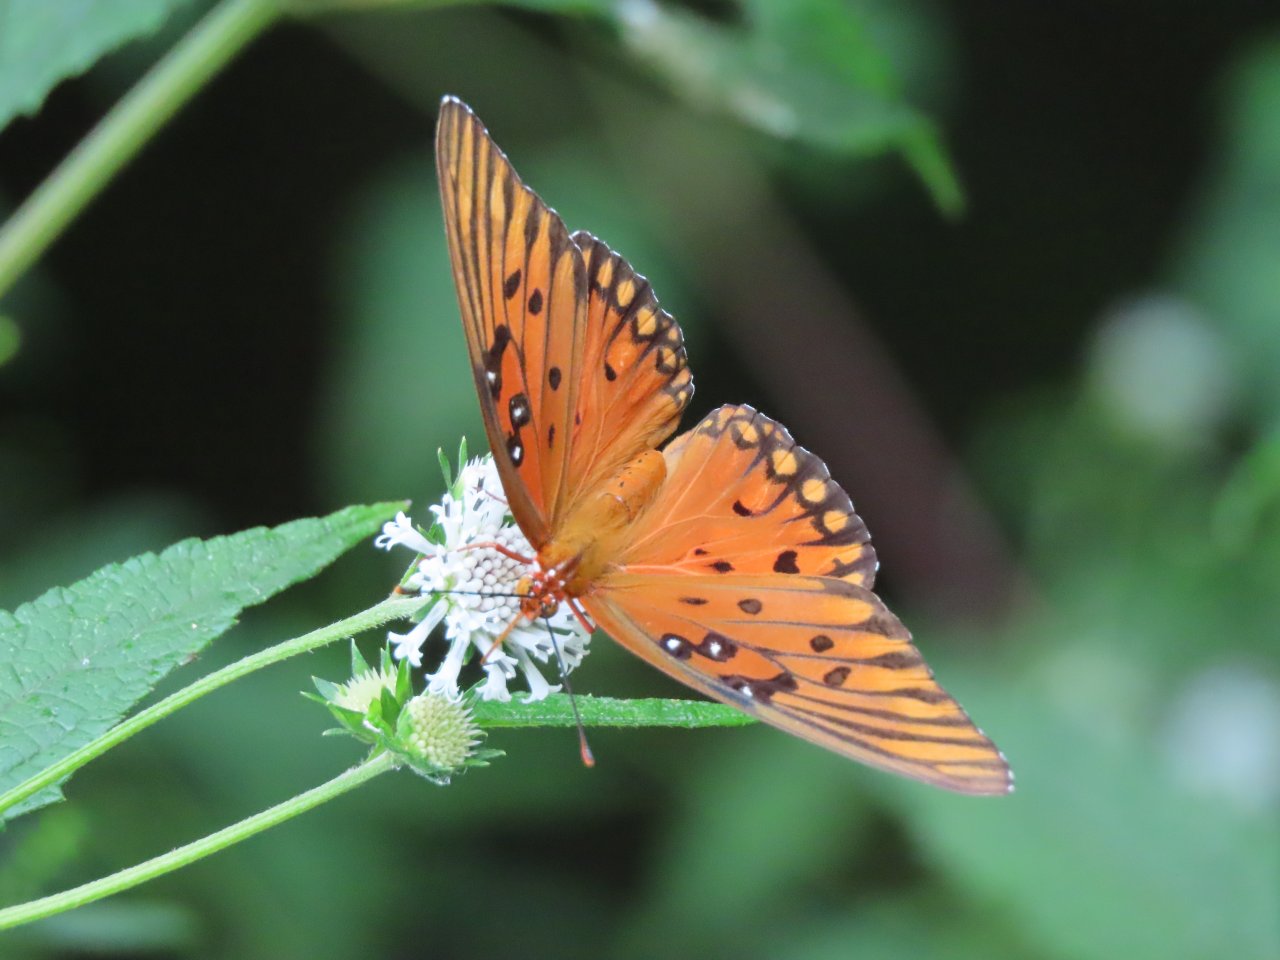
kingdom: Animalia
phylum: Arthropoda
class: Insecta
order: Lepidoptera
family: Nymphalidae
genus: Dione
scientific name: Dione vanillae
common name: Gulf Fritillary
